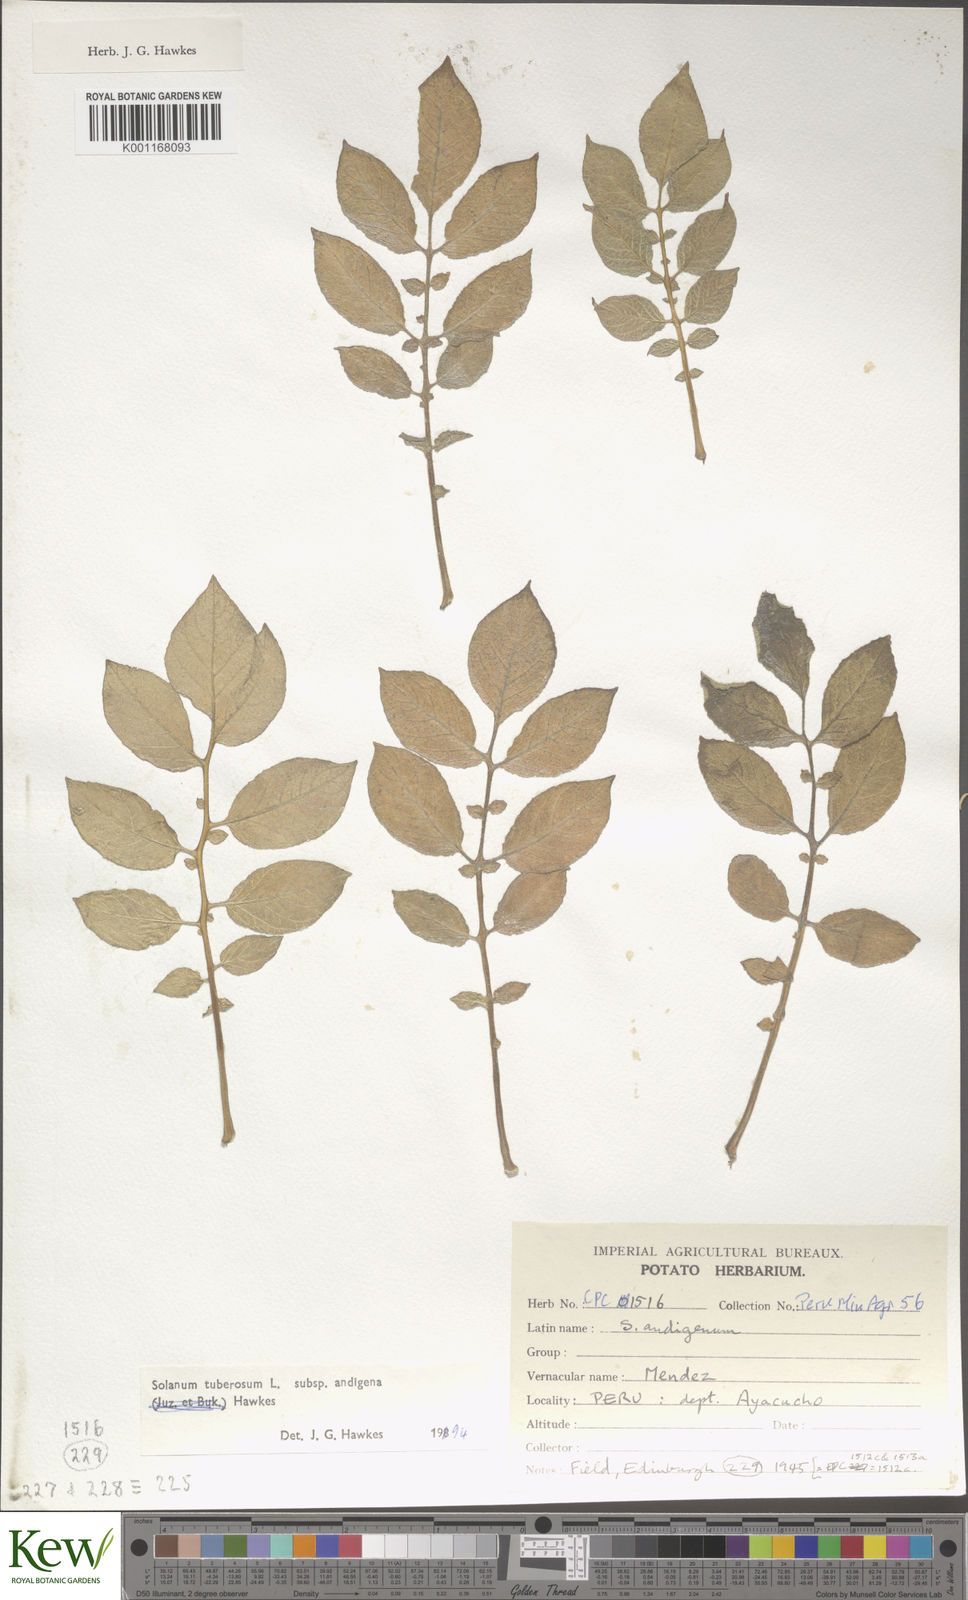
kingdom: Plantae
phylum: Tracheophyta
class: Magnoliopsida
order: Solanales
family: Solanaceae
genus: Solanum
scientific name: Solanum tuberosum
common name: Potato
